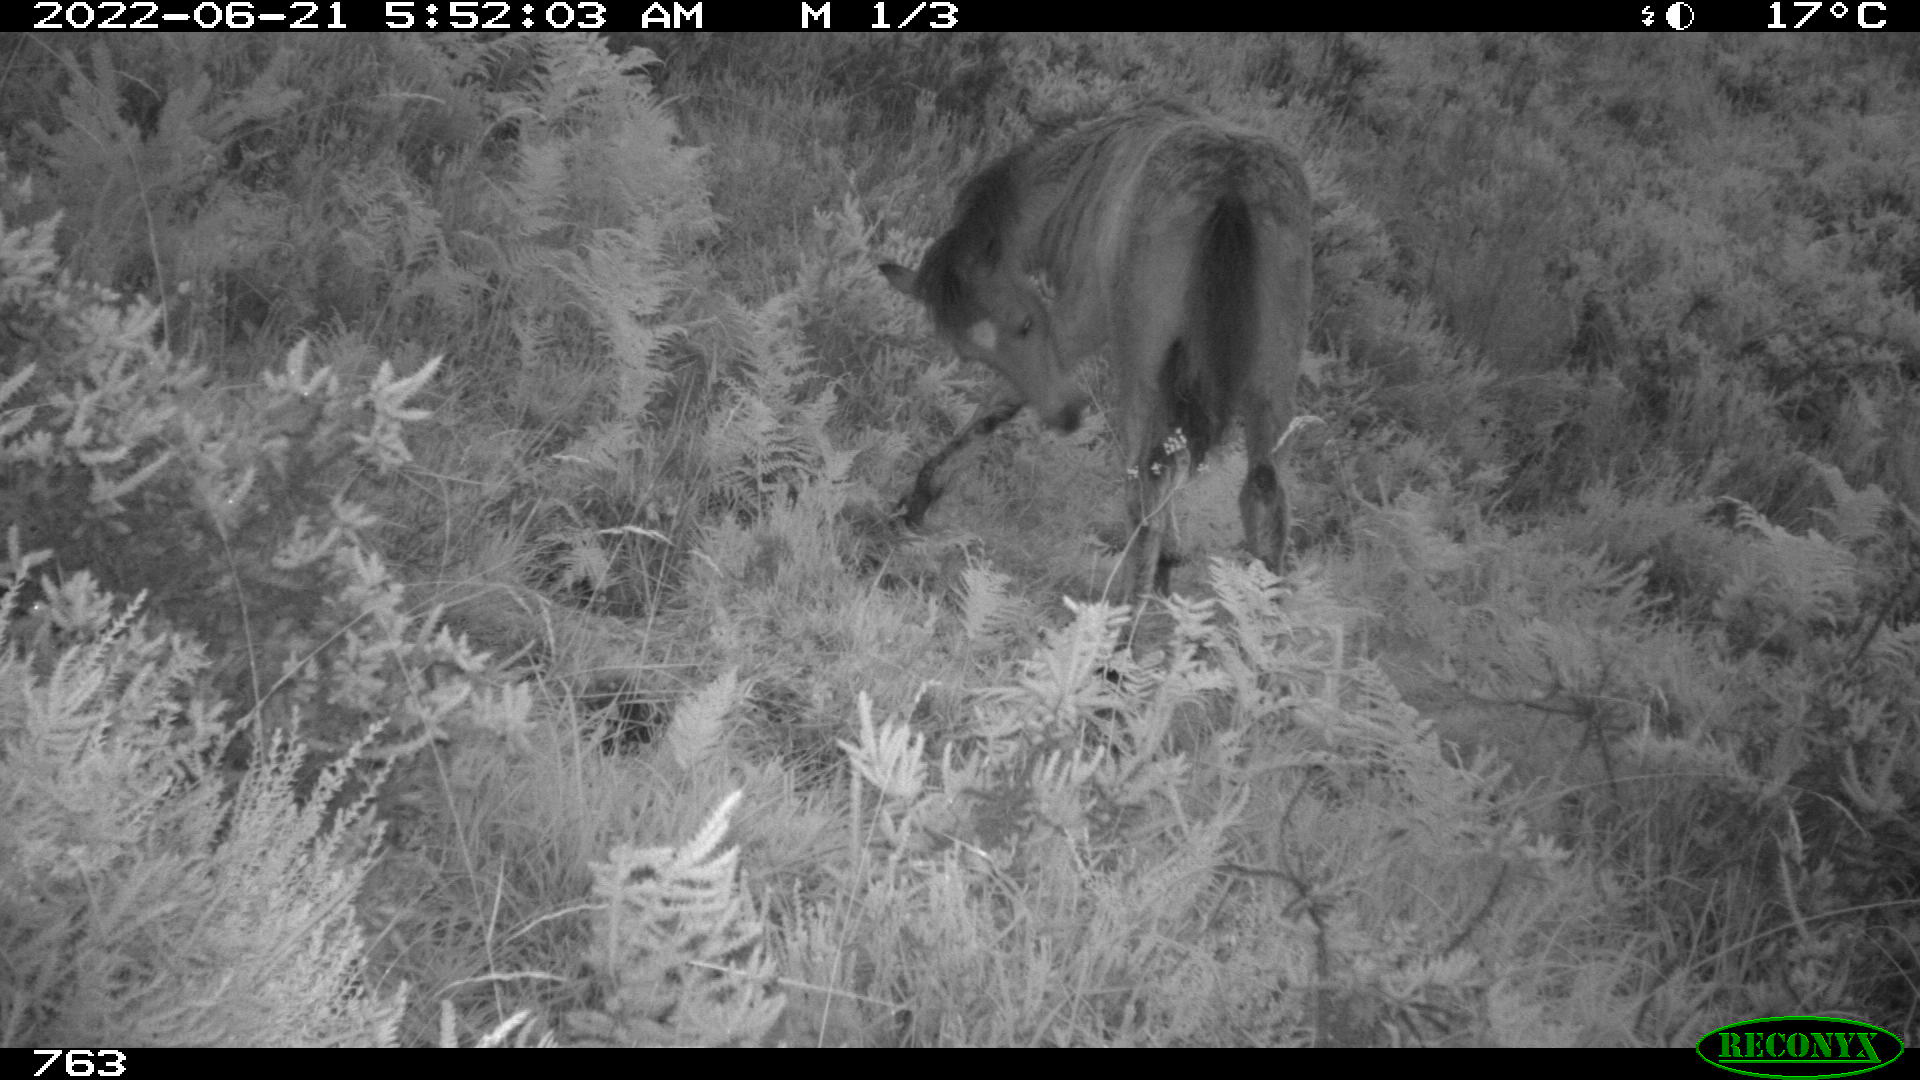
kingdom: Animalia
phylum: Chordata
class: Mammalia
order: Perissodactyla
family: Equidae
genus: Equus
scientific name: Equus caballus
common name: Horse
